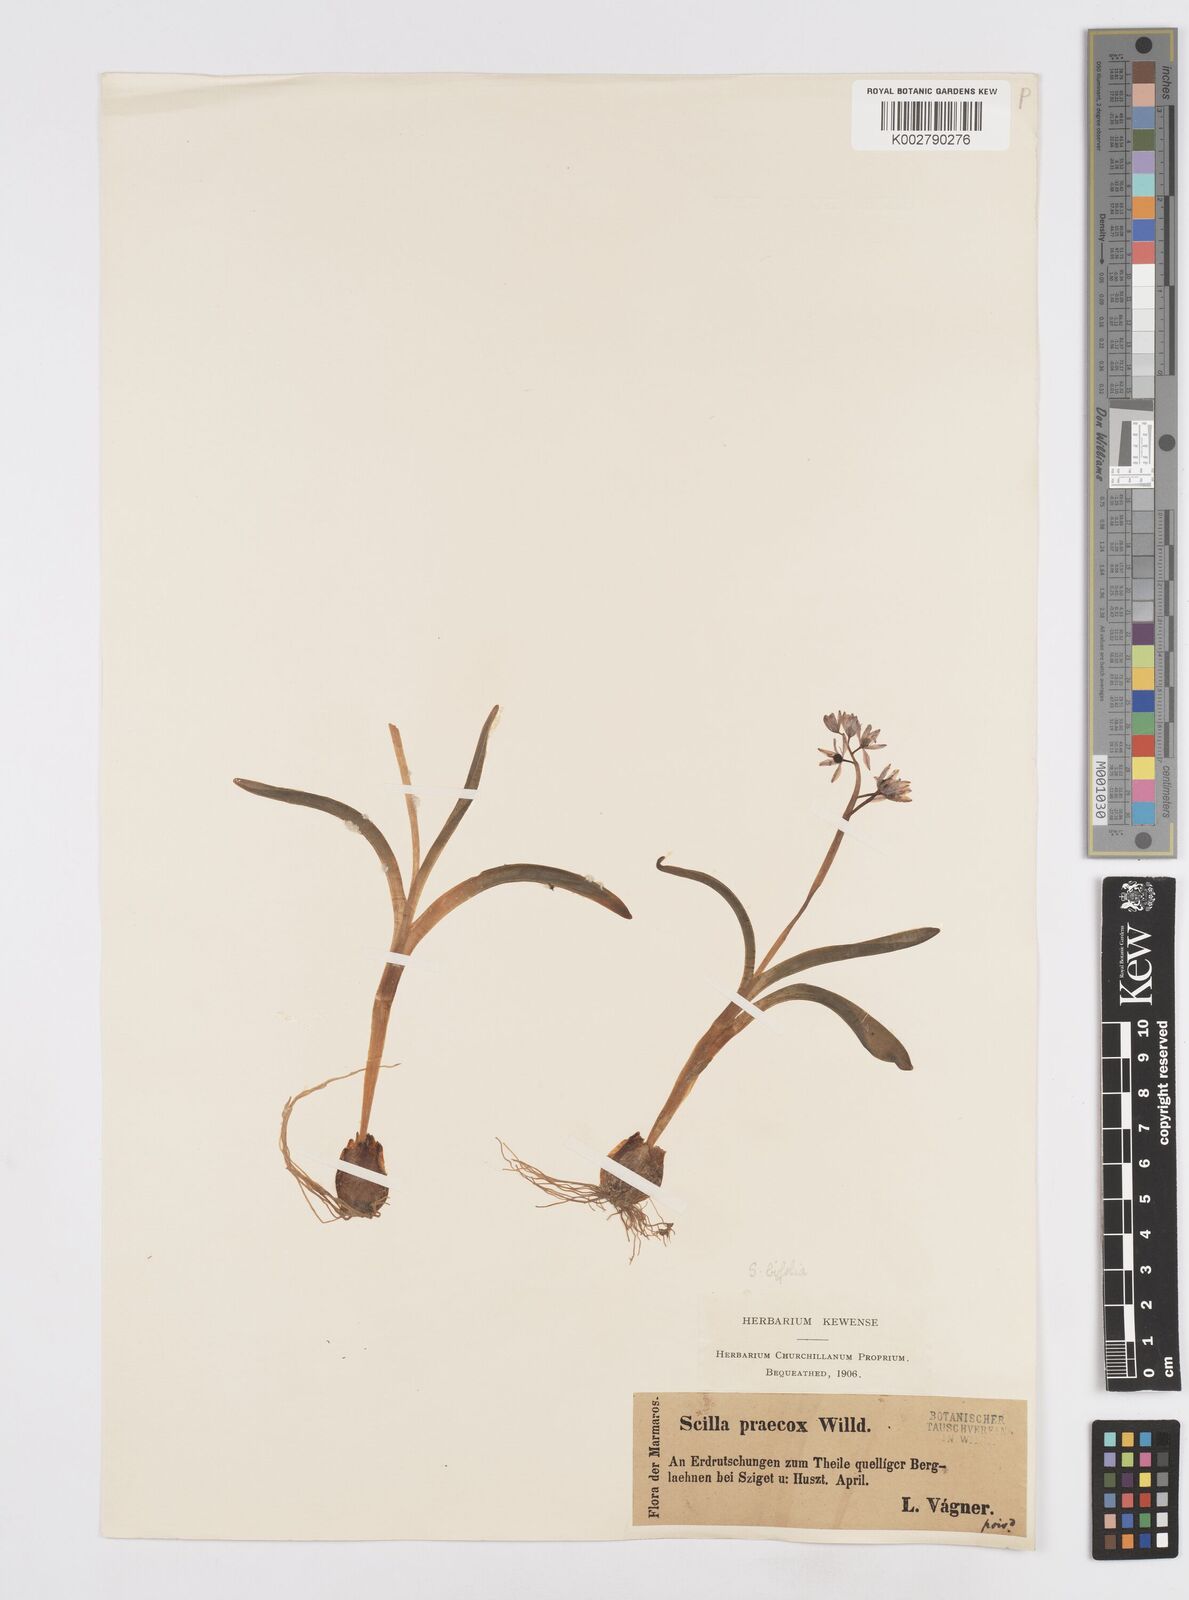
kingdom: Plantae
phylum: Tracheophyta
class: Liliopsida
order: Asparagales
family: Asparagaceae
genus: Scilla
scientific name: Scilla bifolia
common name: Alpine squill
